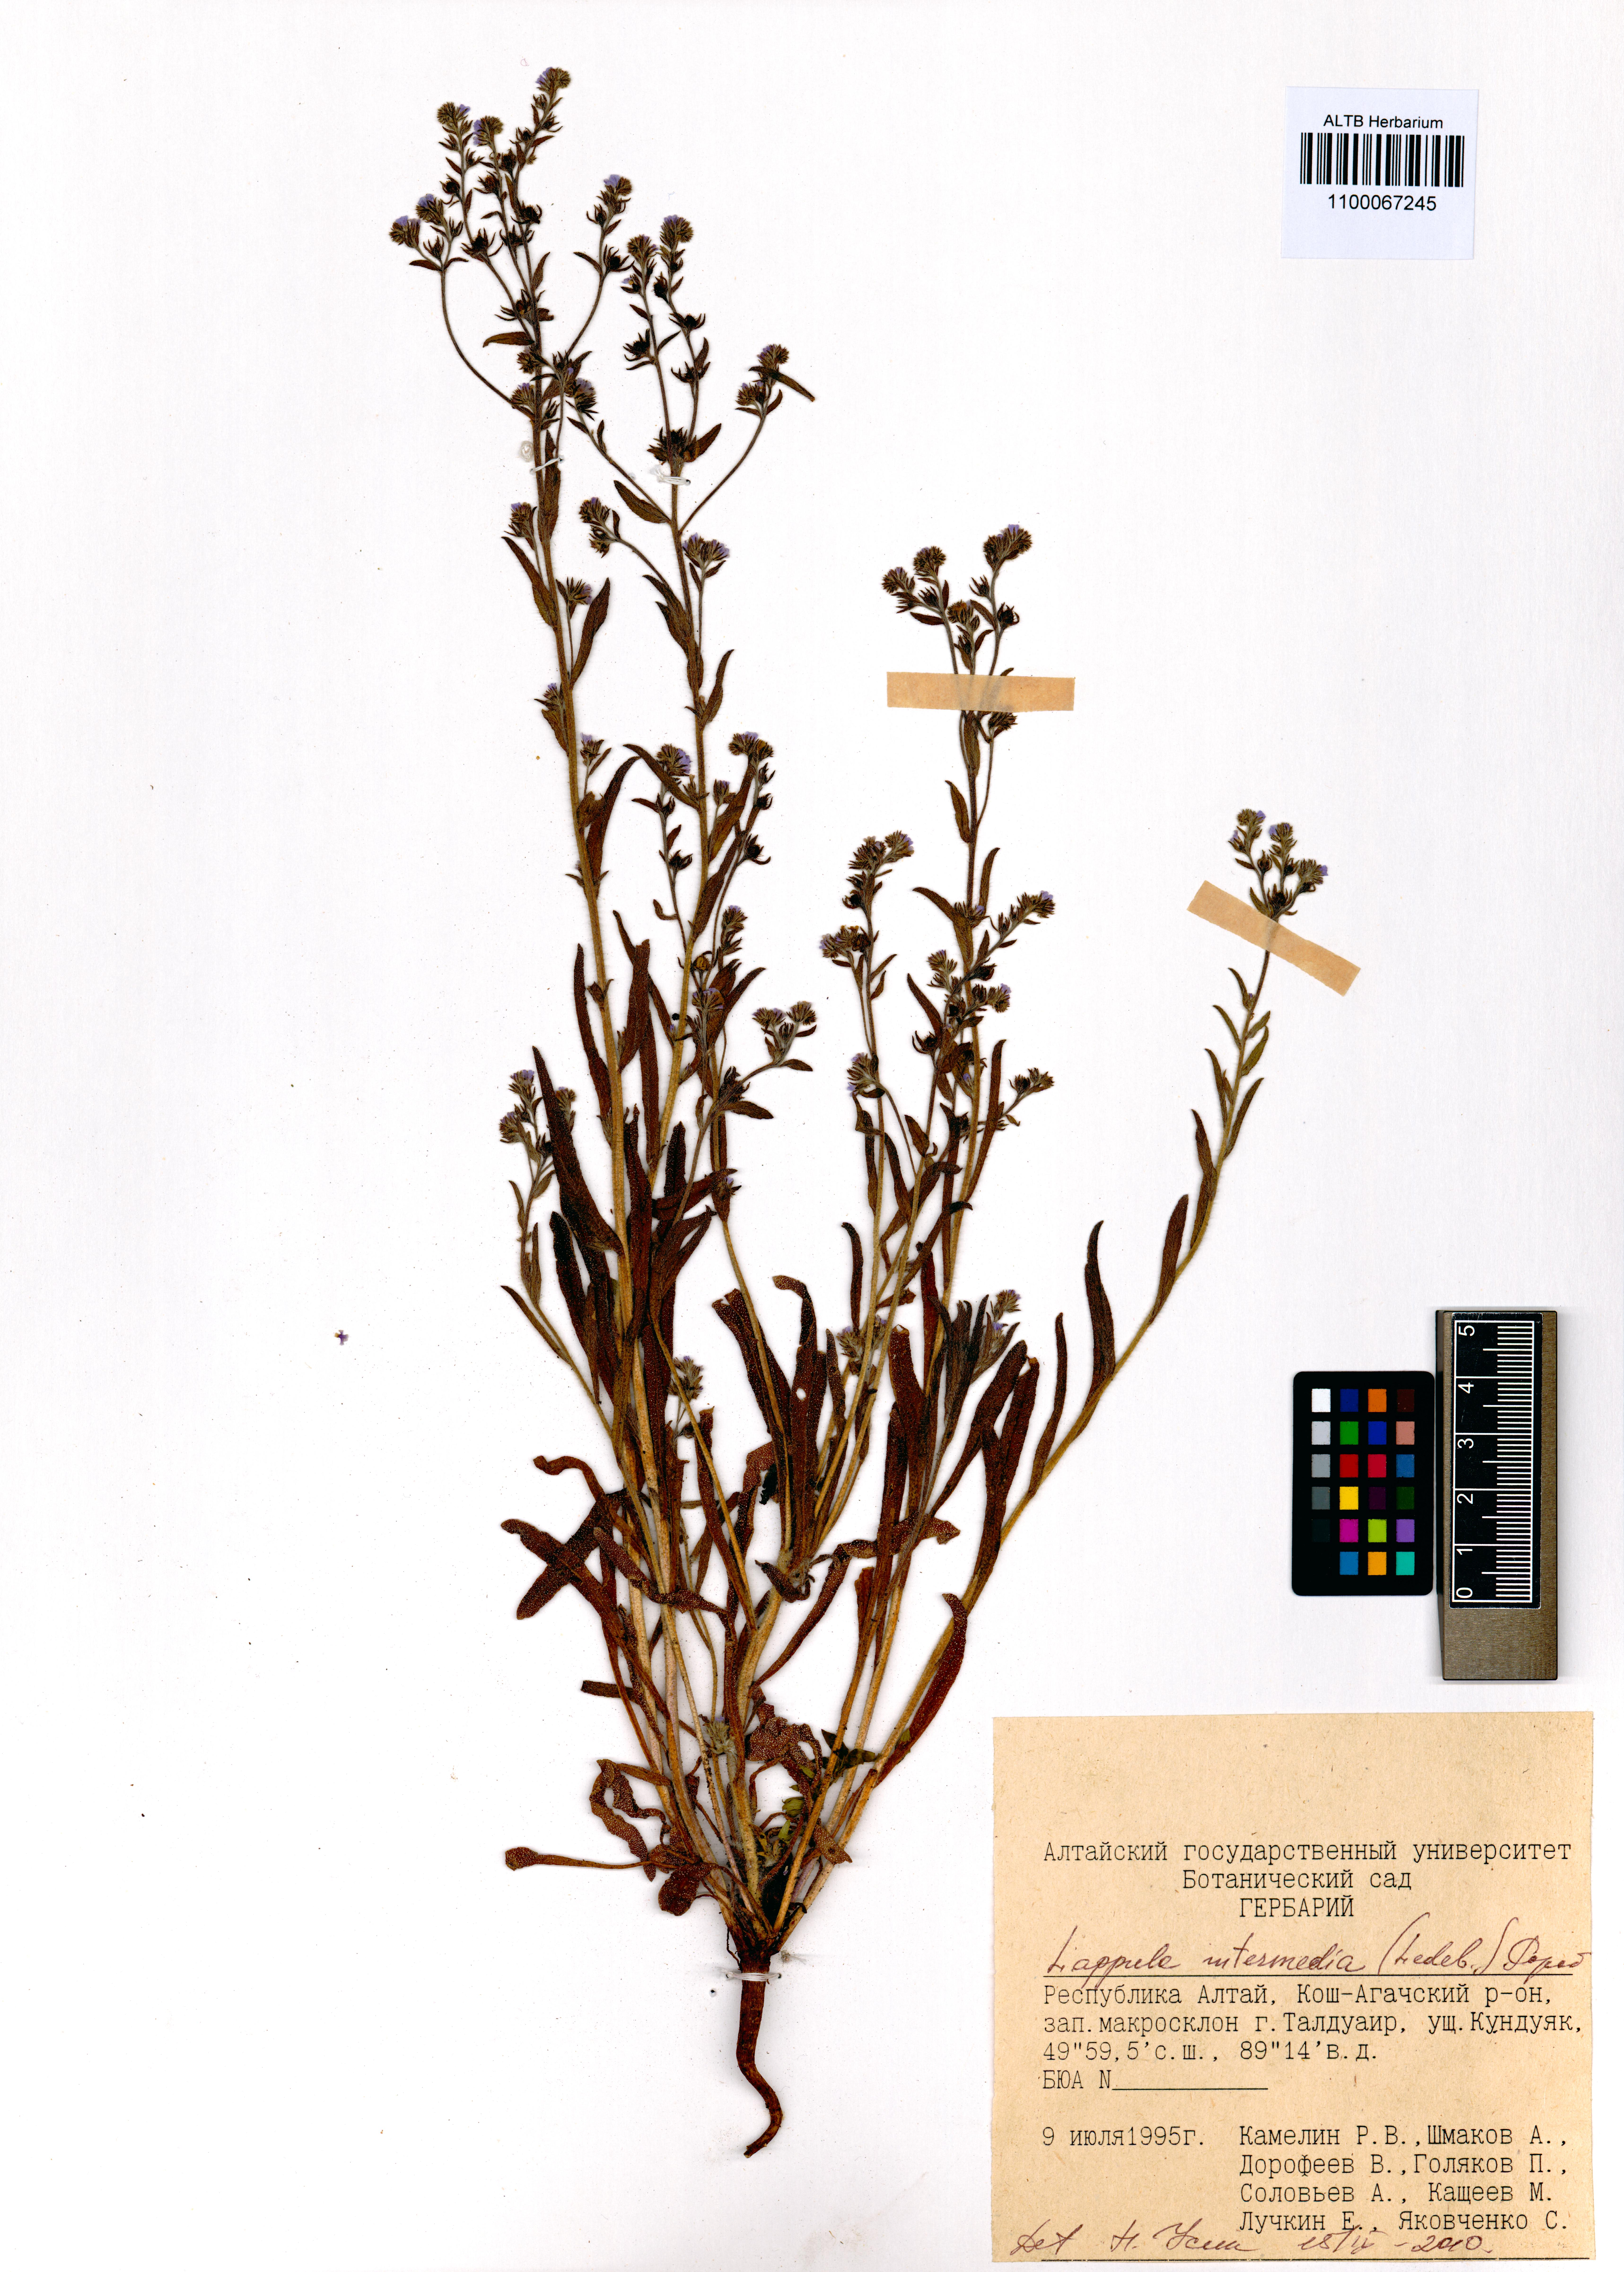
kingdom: Plantae
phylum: Tracheophyta
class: Magnoliopsida
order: Boraginales
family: Boraginaceae
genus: Lappula
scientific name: Lappula intermedia
